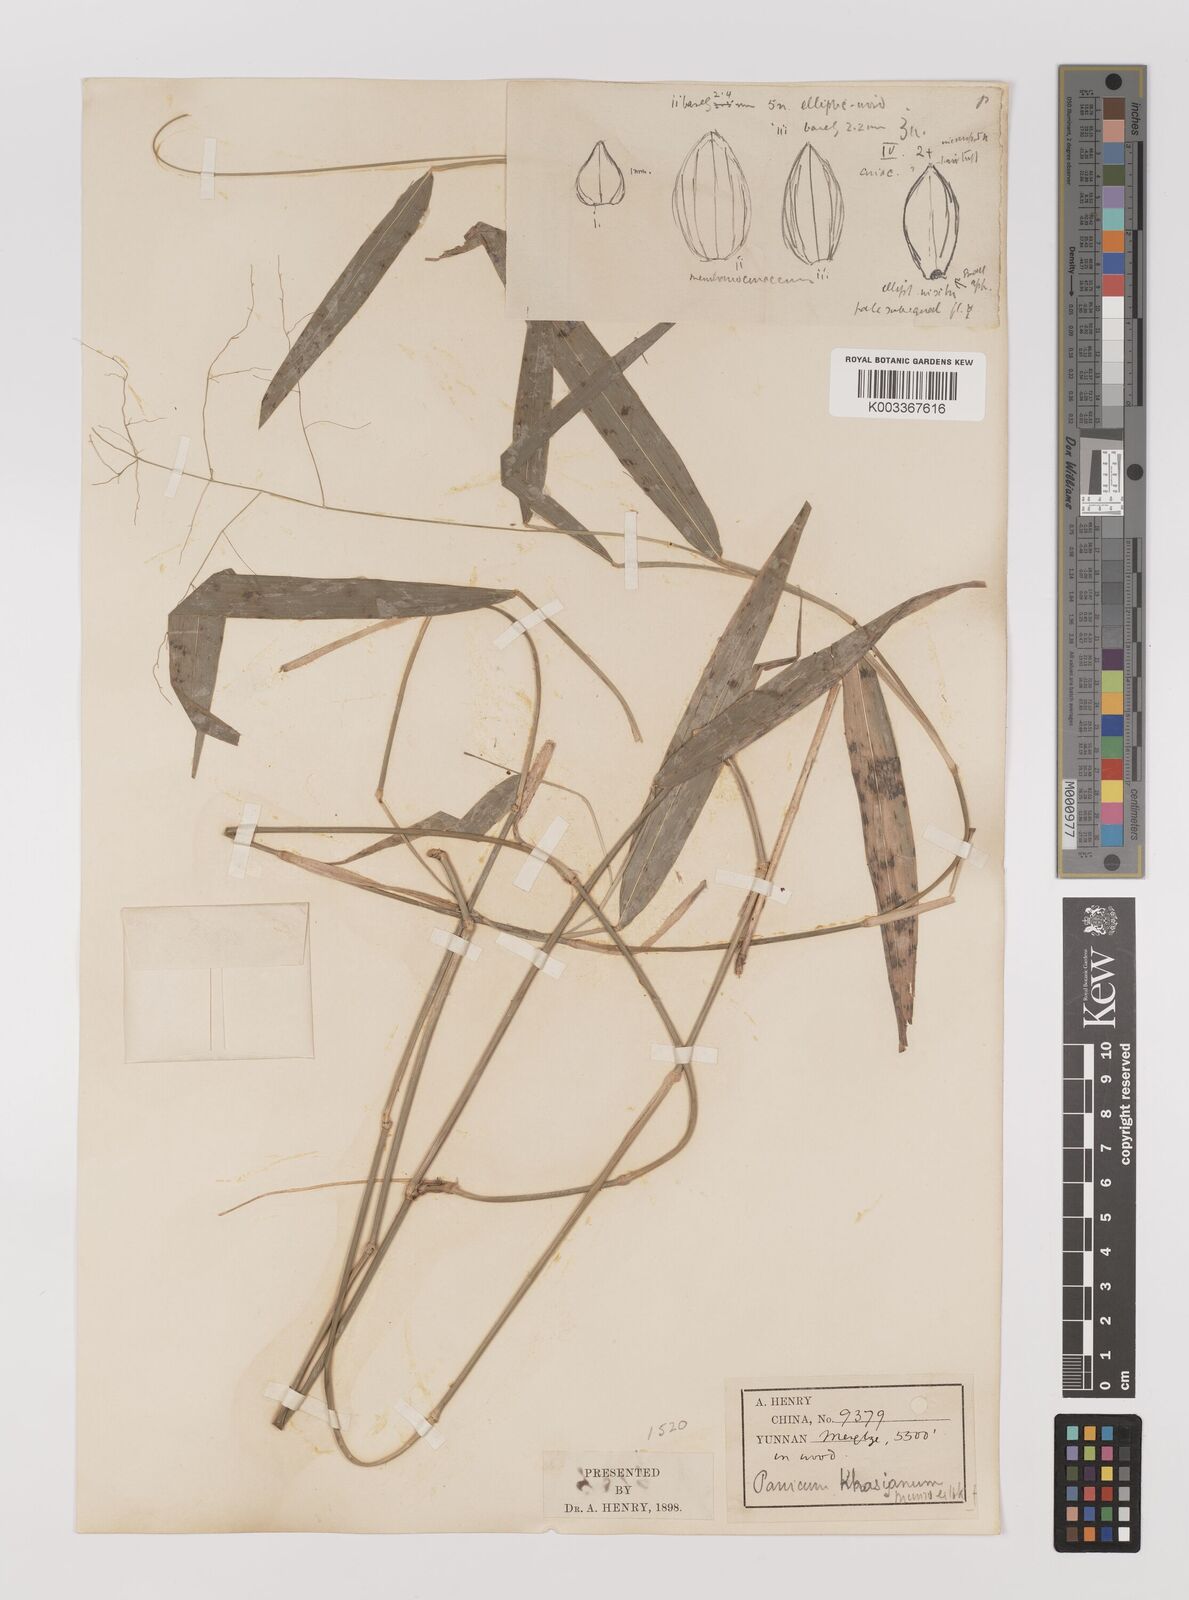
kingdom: Plantae
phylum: Tracheophyta
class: Liliopsida
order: Poales
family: Poaceae
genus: Panicum
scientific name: Panicum khasianum
